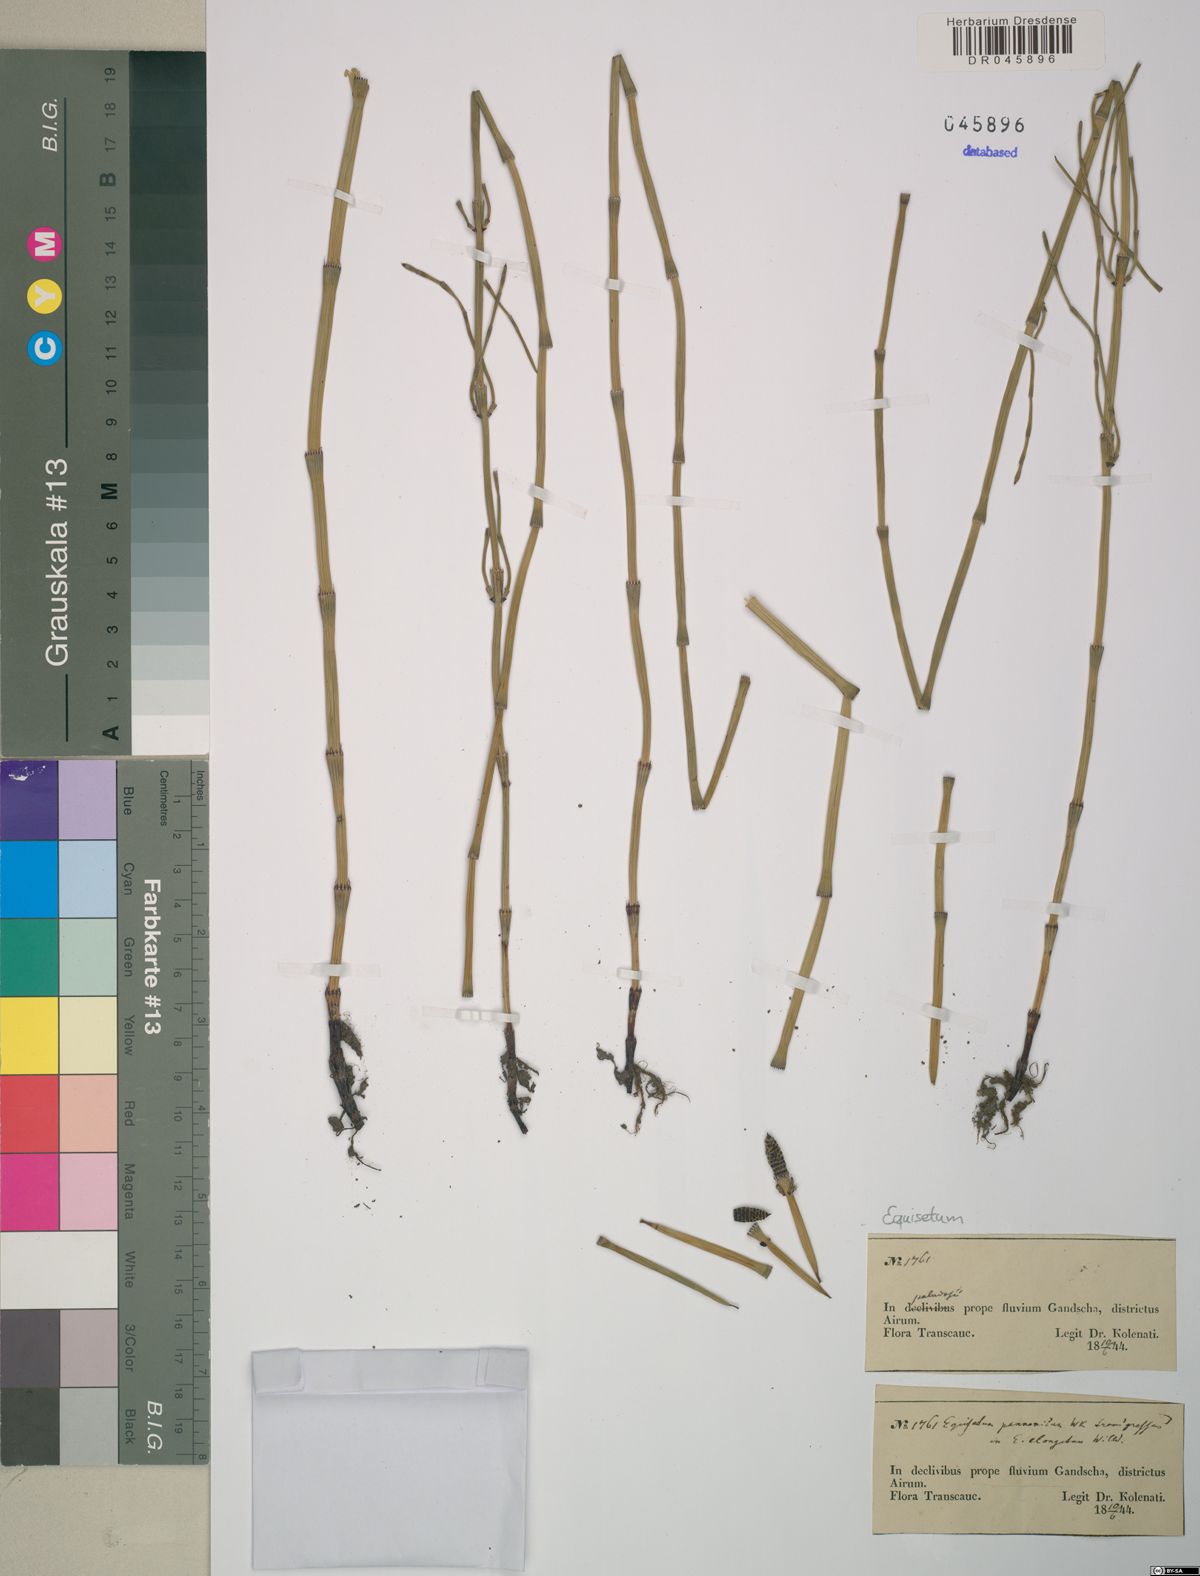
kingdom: Plantae
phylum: Tracheophyta
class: Polypodiopsida
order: Equisetales
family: Equisetaceae
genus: Equisetum
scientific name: Equisetum ramosissimum
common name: Branched horsetail
